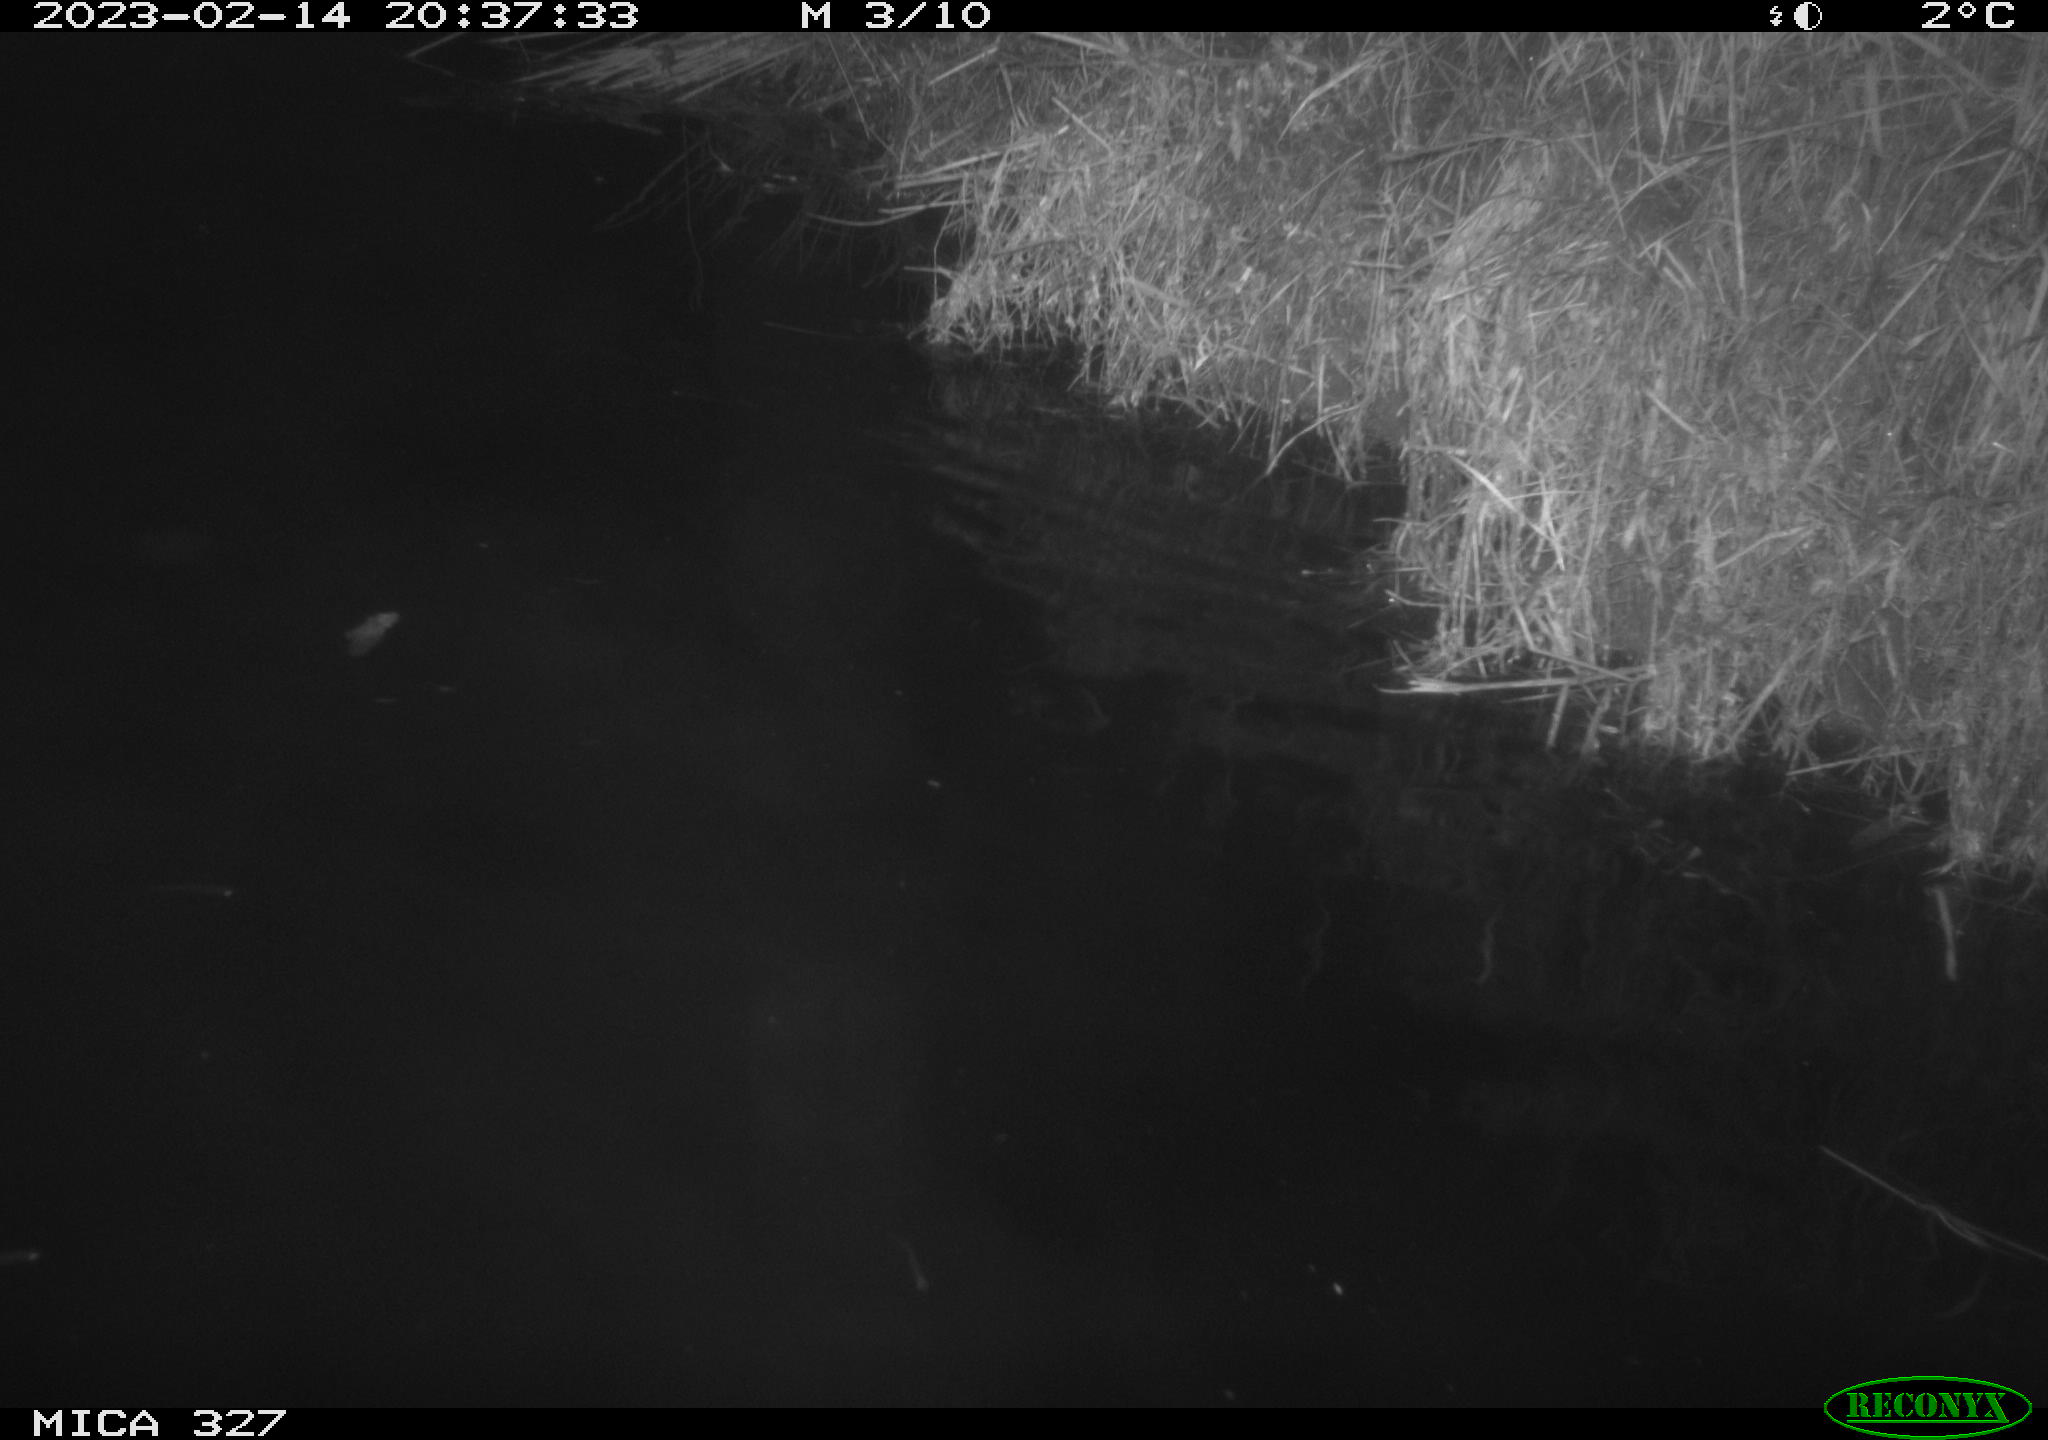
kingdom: Animalia
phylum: Chordata
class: Mammalia
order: Rodentia
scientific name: Rodentia
